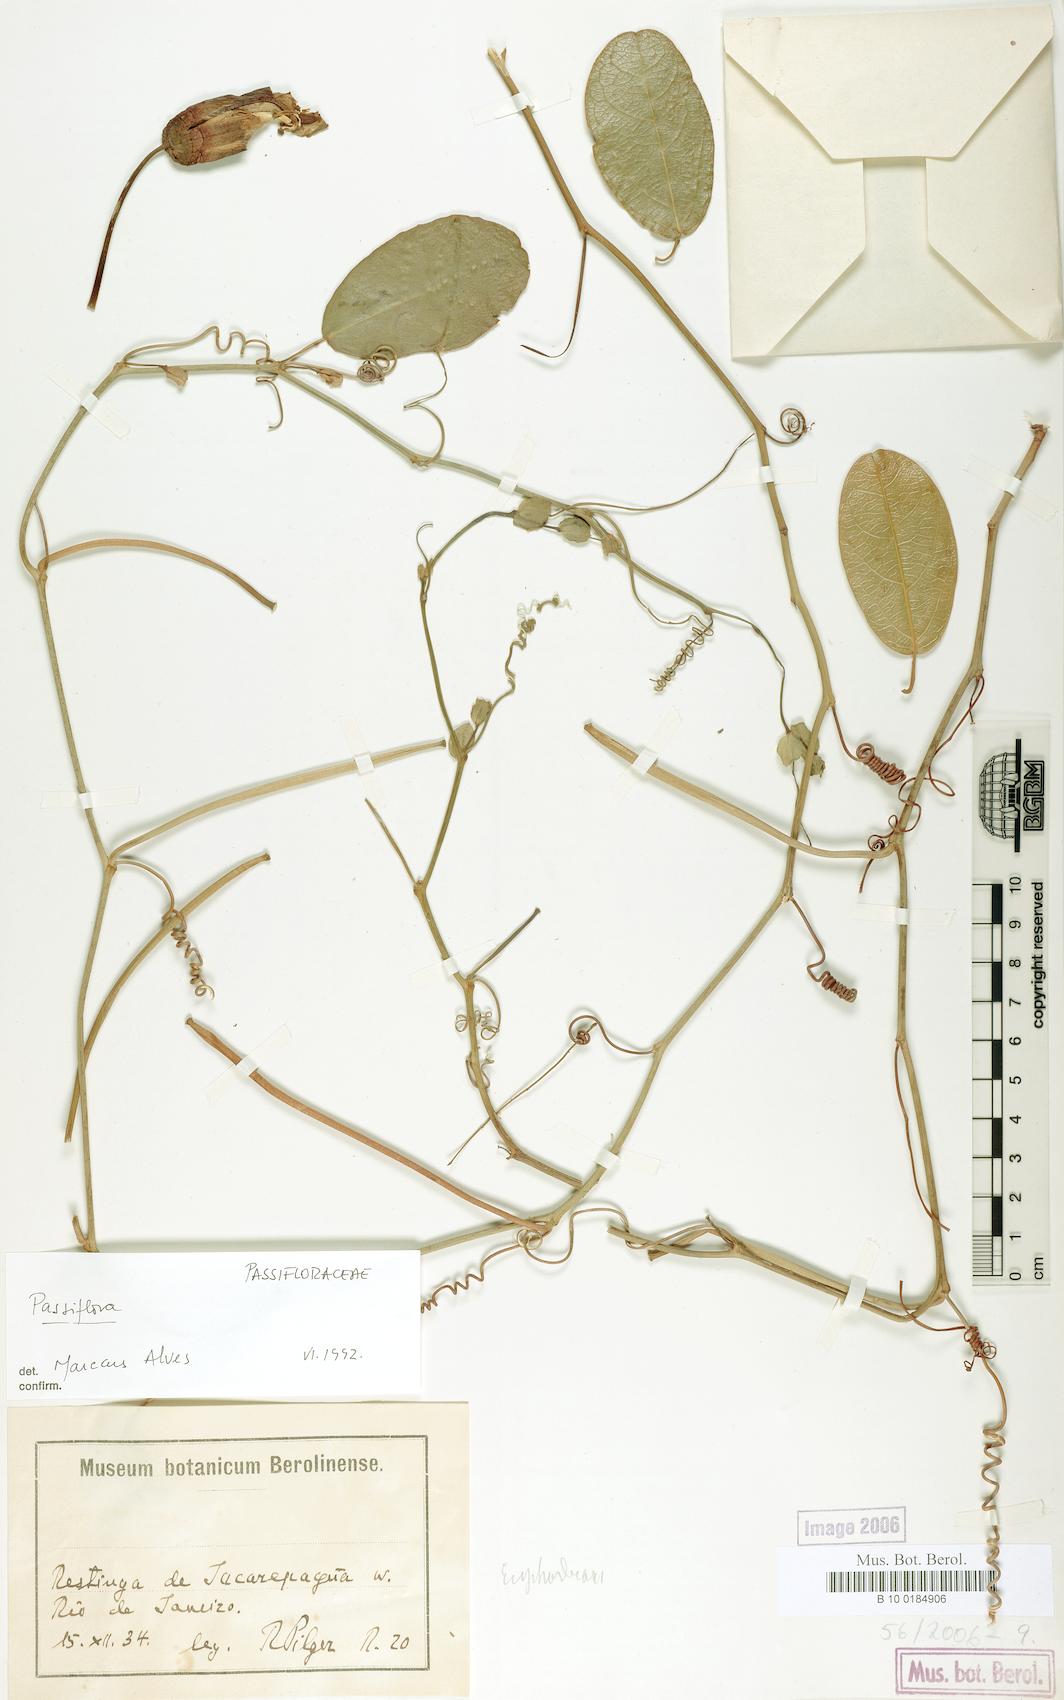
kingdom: Plantae
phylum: Tracheophyta
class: Magnoliopsida
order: Malpighiales
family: Passifloraceae
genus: Passiflora
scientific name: Passiflora
